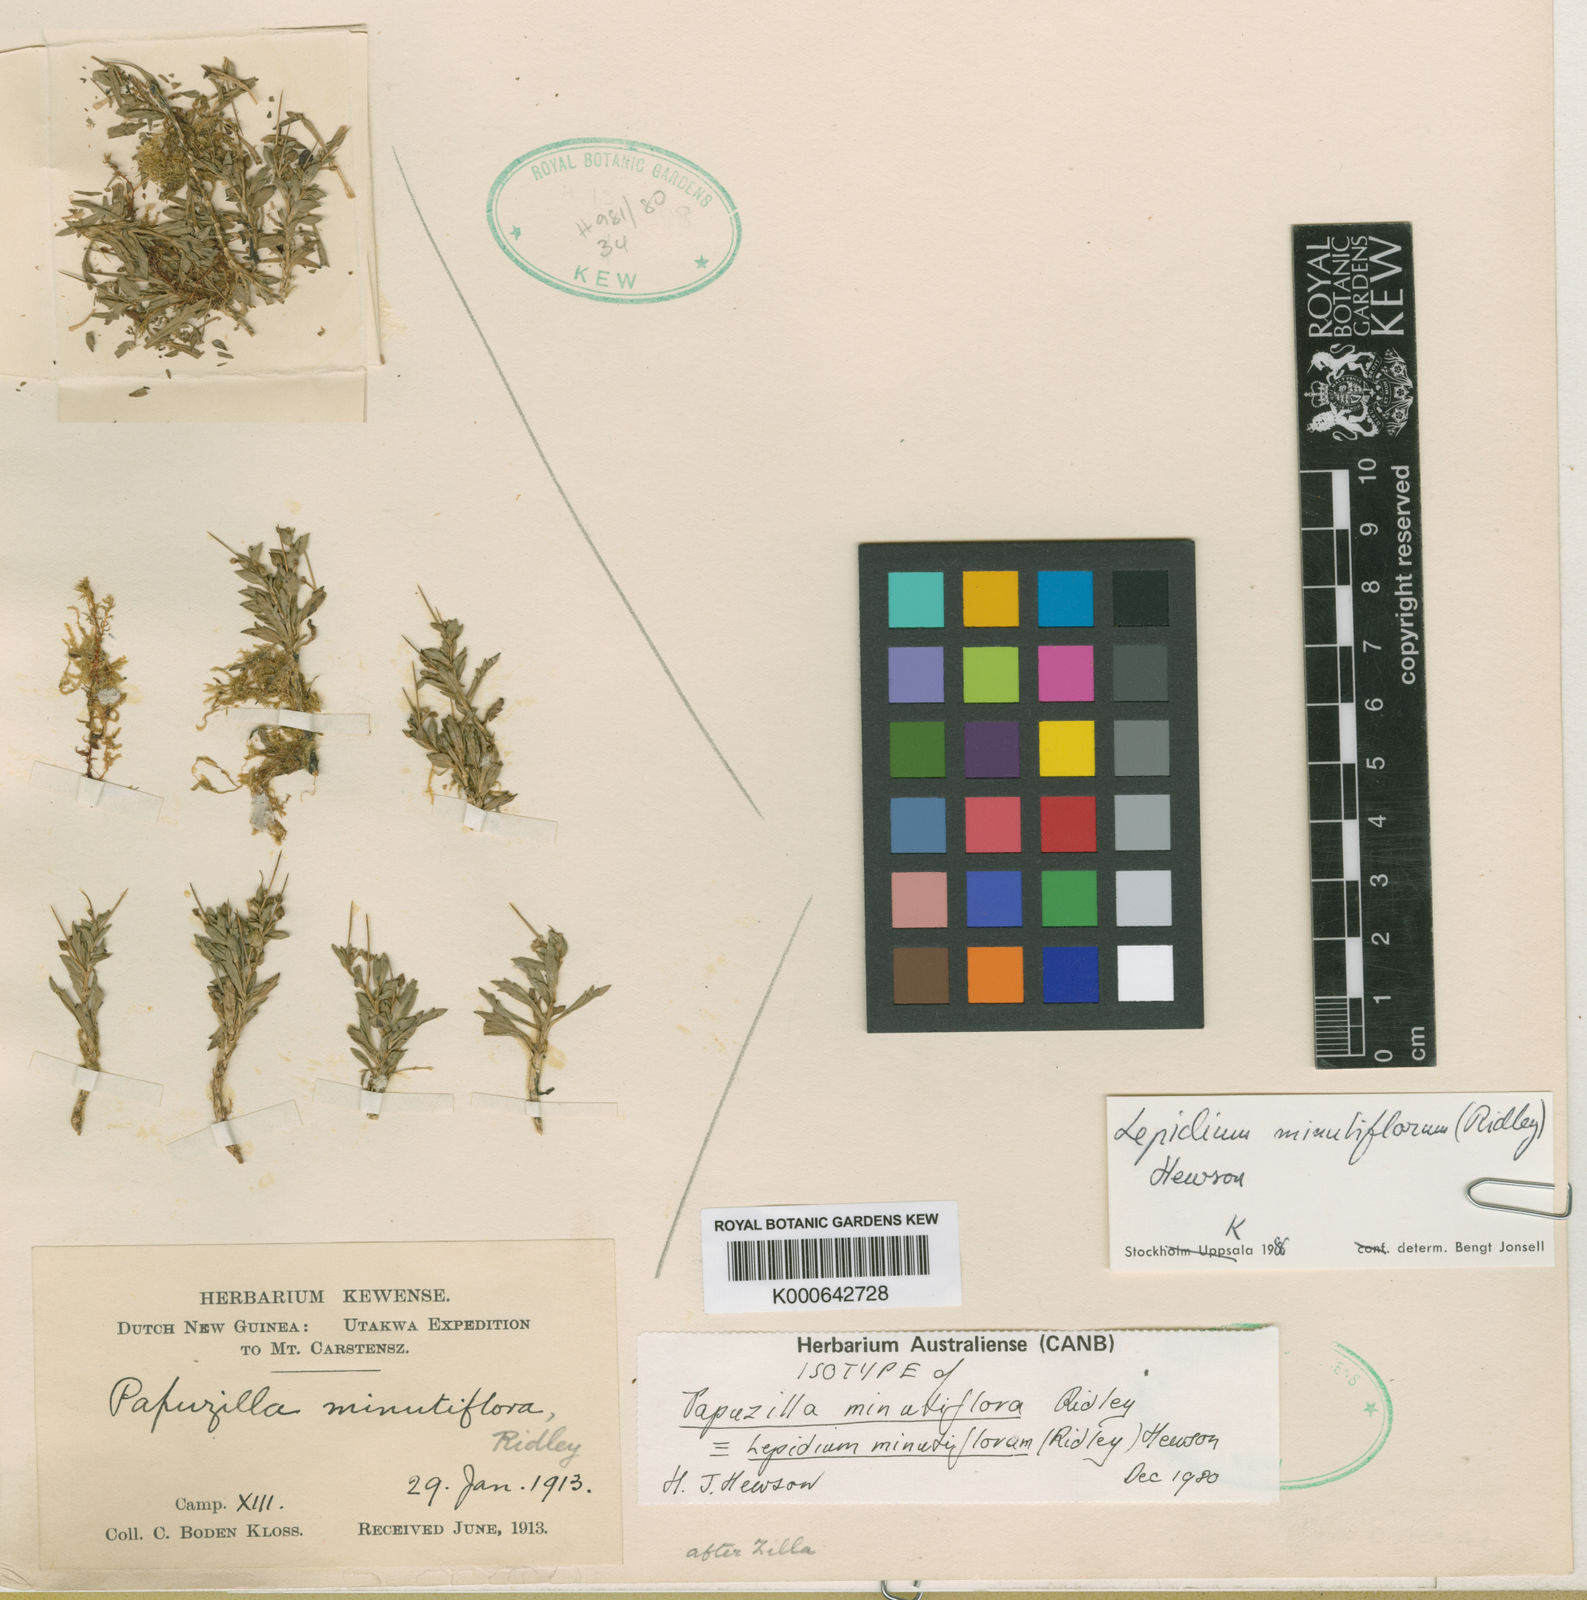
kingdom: Plantae
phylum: Tracheophyta
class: Magnoliopsida
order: Brassicales
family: Brassicaceae
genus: Lepidium
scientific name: Lepidium minutiflorum
